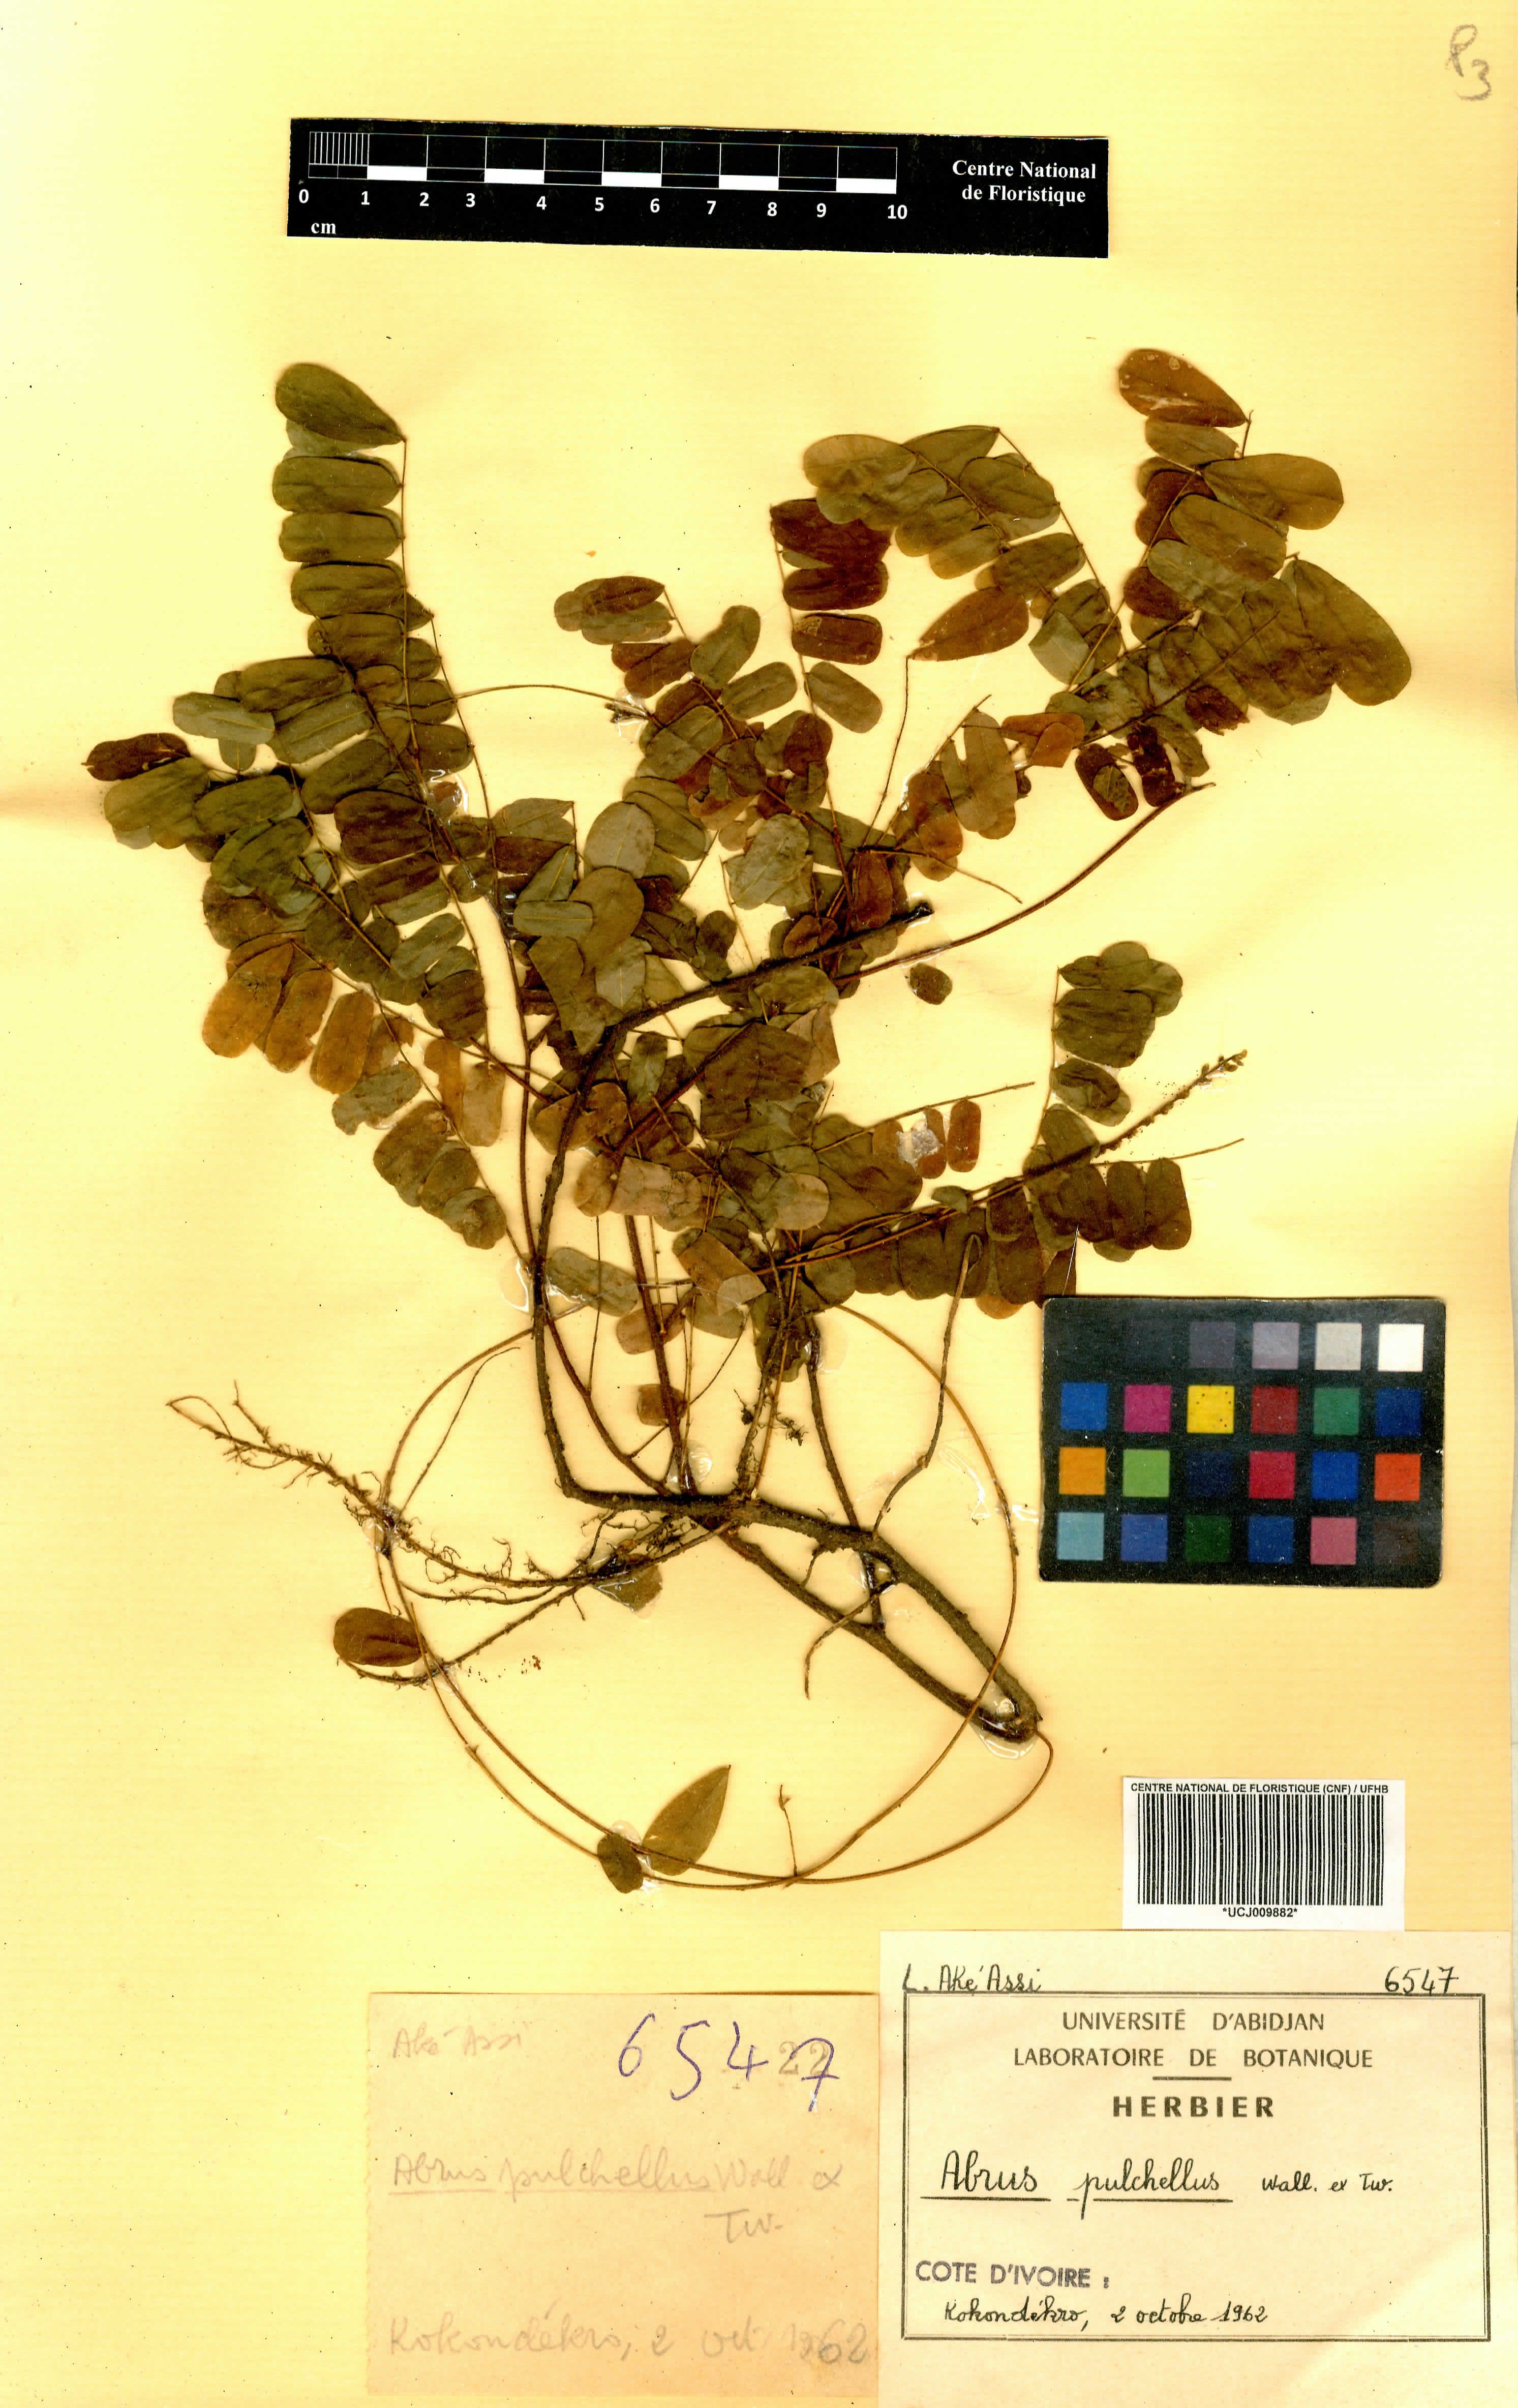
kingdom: Plantae
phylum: Tracheophyta
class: Magnoliopsida
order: Fabales
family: Fabaceae
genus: Abrus
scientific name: Abrus fruticulosus
